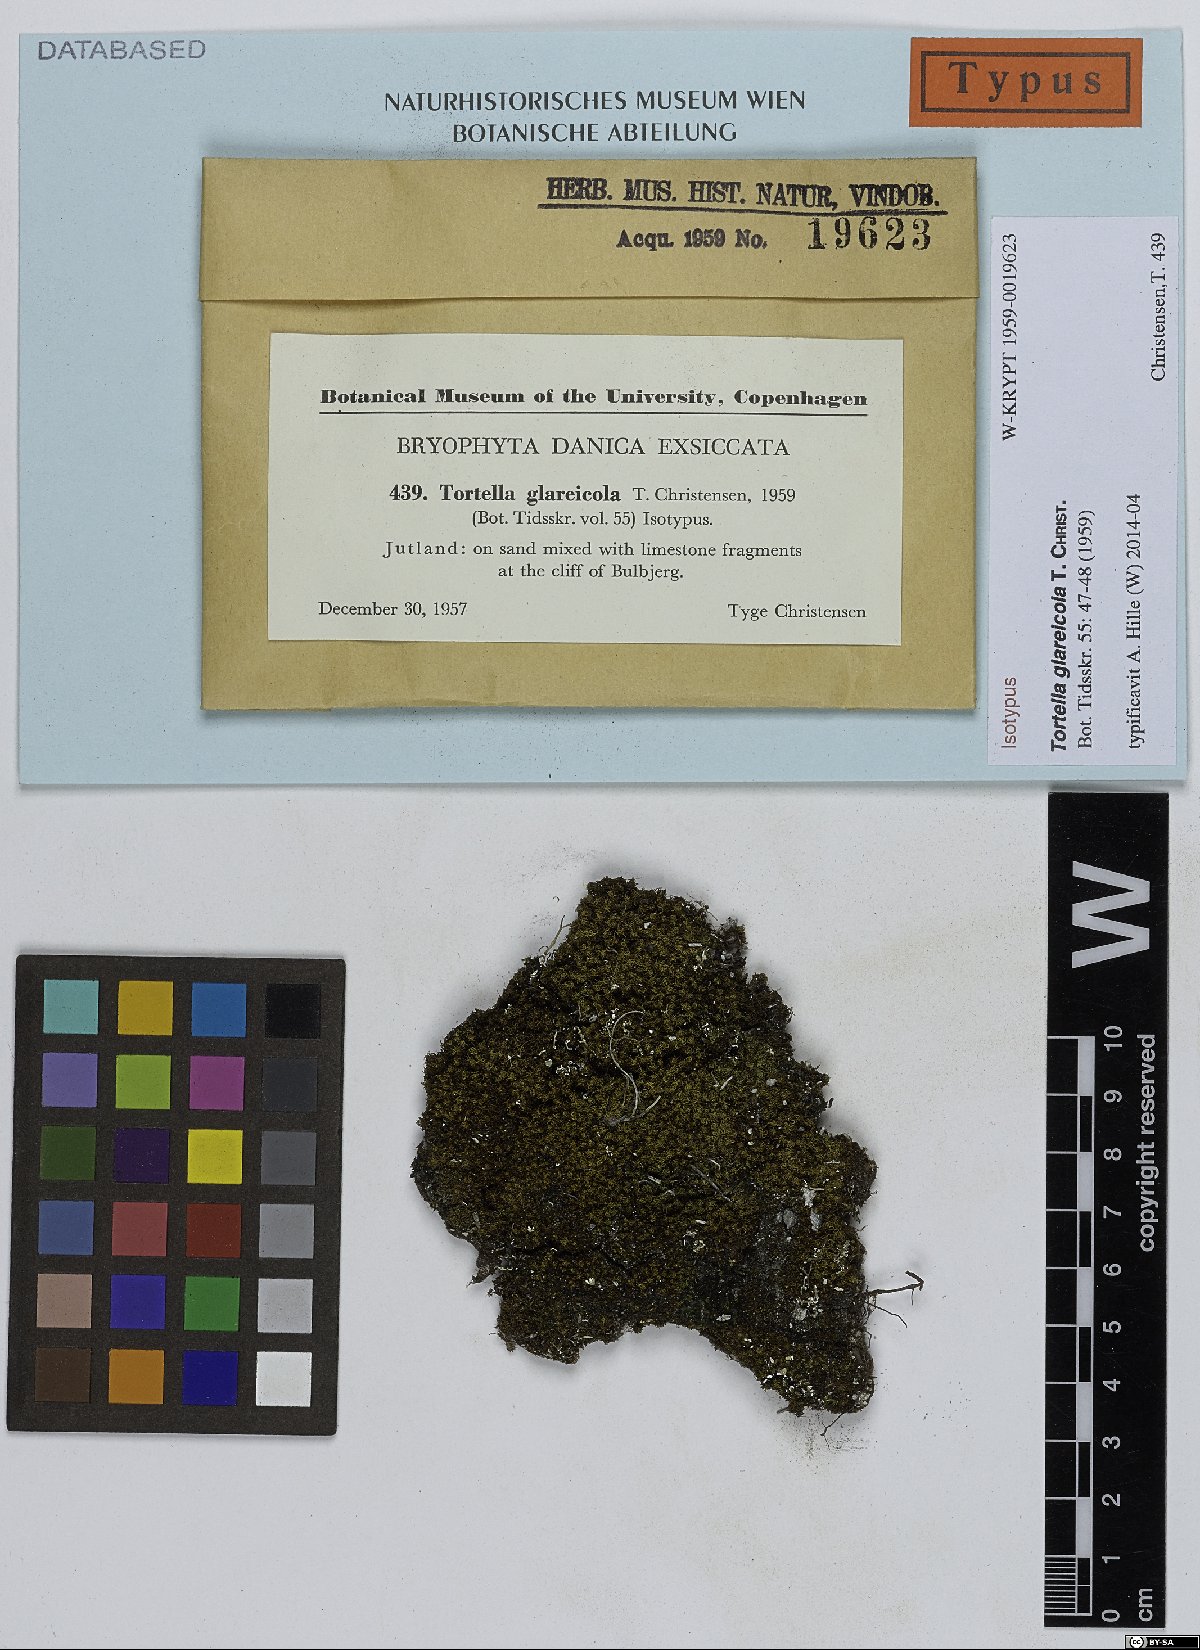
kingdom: Plantae
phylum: Bryophyta
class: Bryopsida
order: Pottiales
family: Pottiaceae
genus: Tortella
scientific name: Tortella flavovirens
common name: Arisaig crisp-moss
